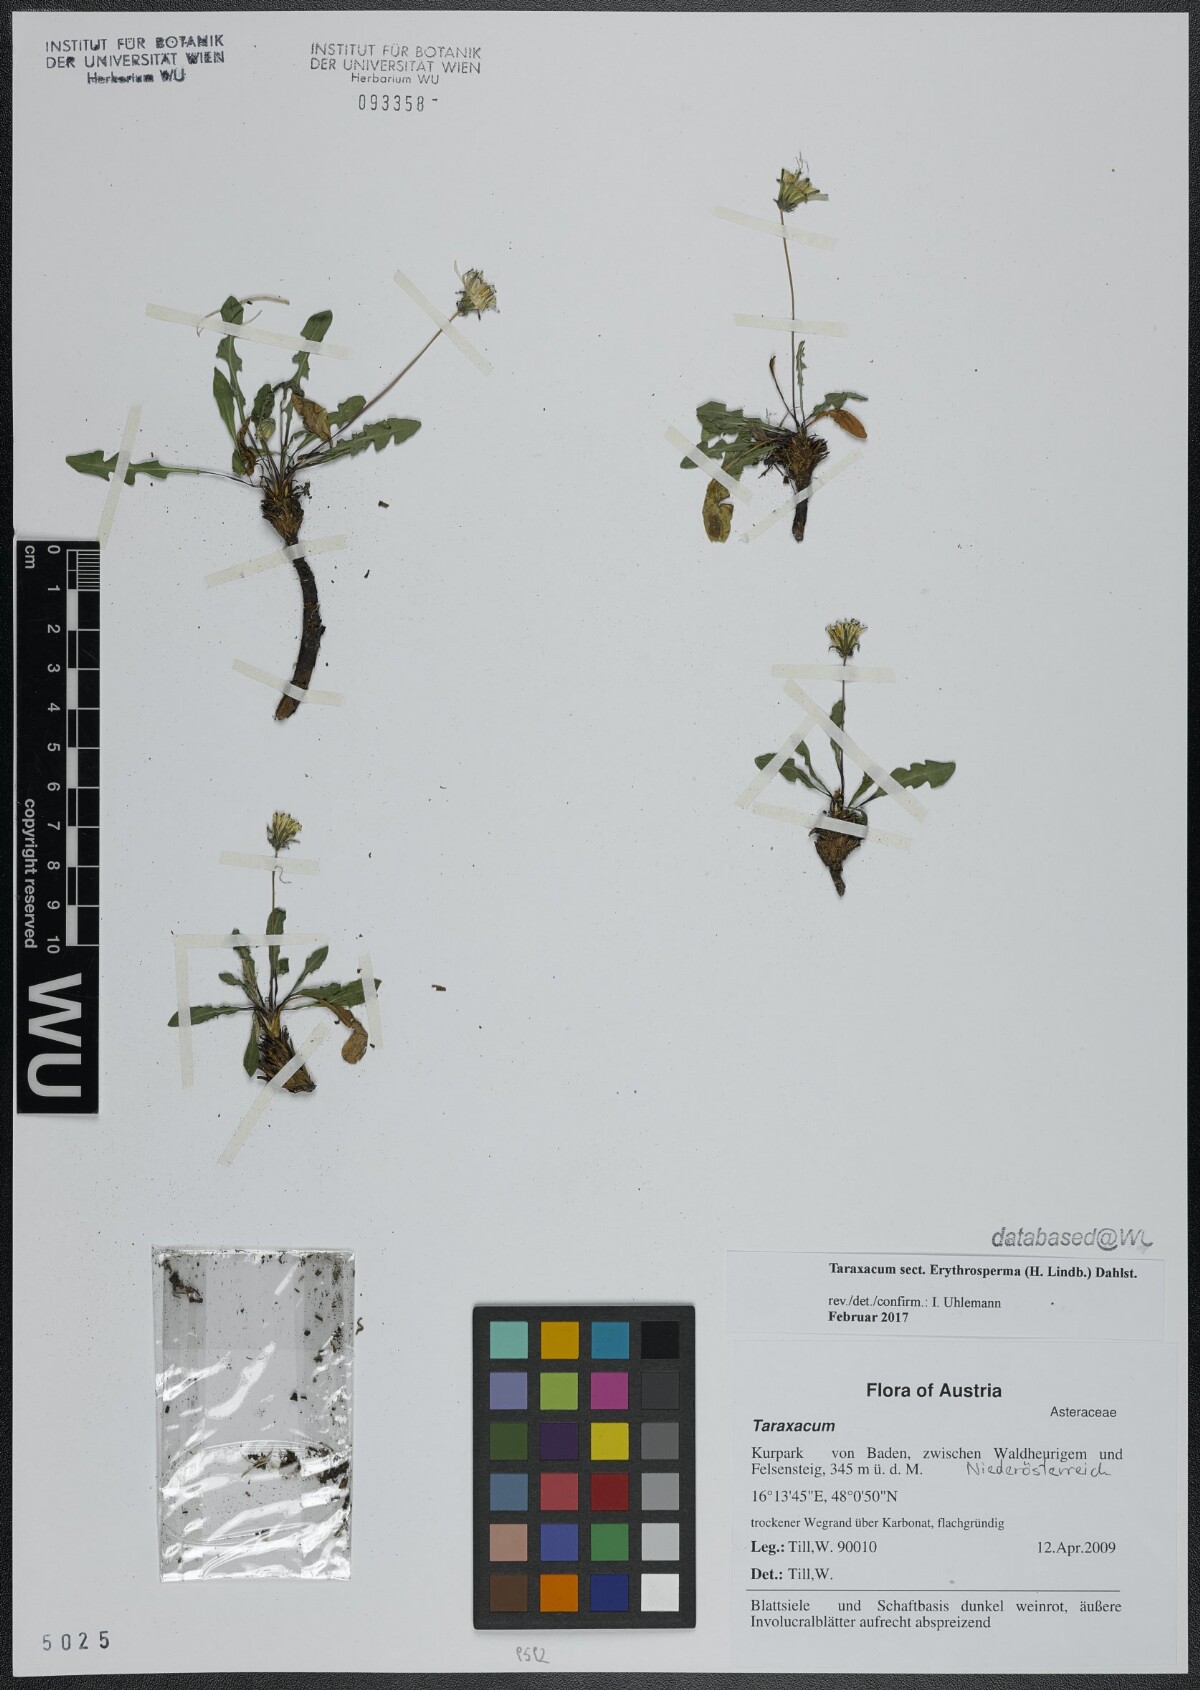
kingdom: Plantae
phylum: Tracheophyta
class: Magnoliopsida
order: Asterales
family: Asteraceae
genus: Taraxacum
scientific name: Taraxacum
